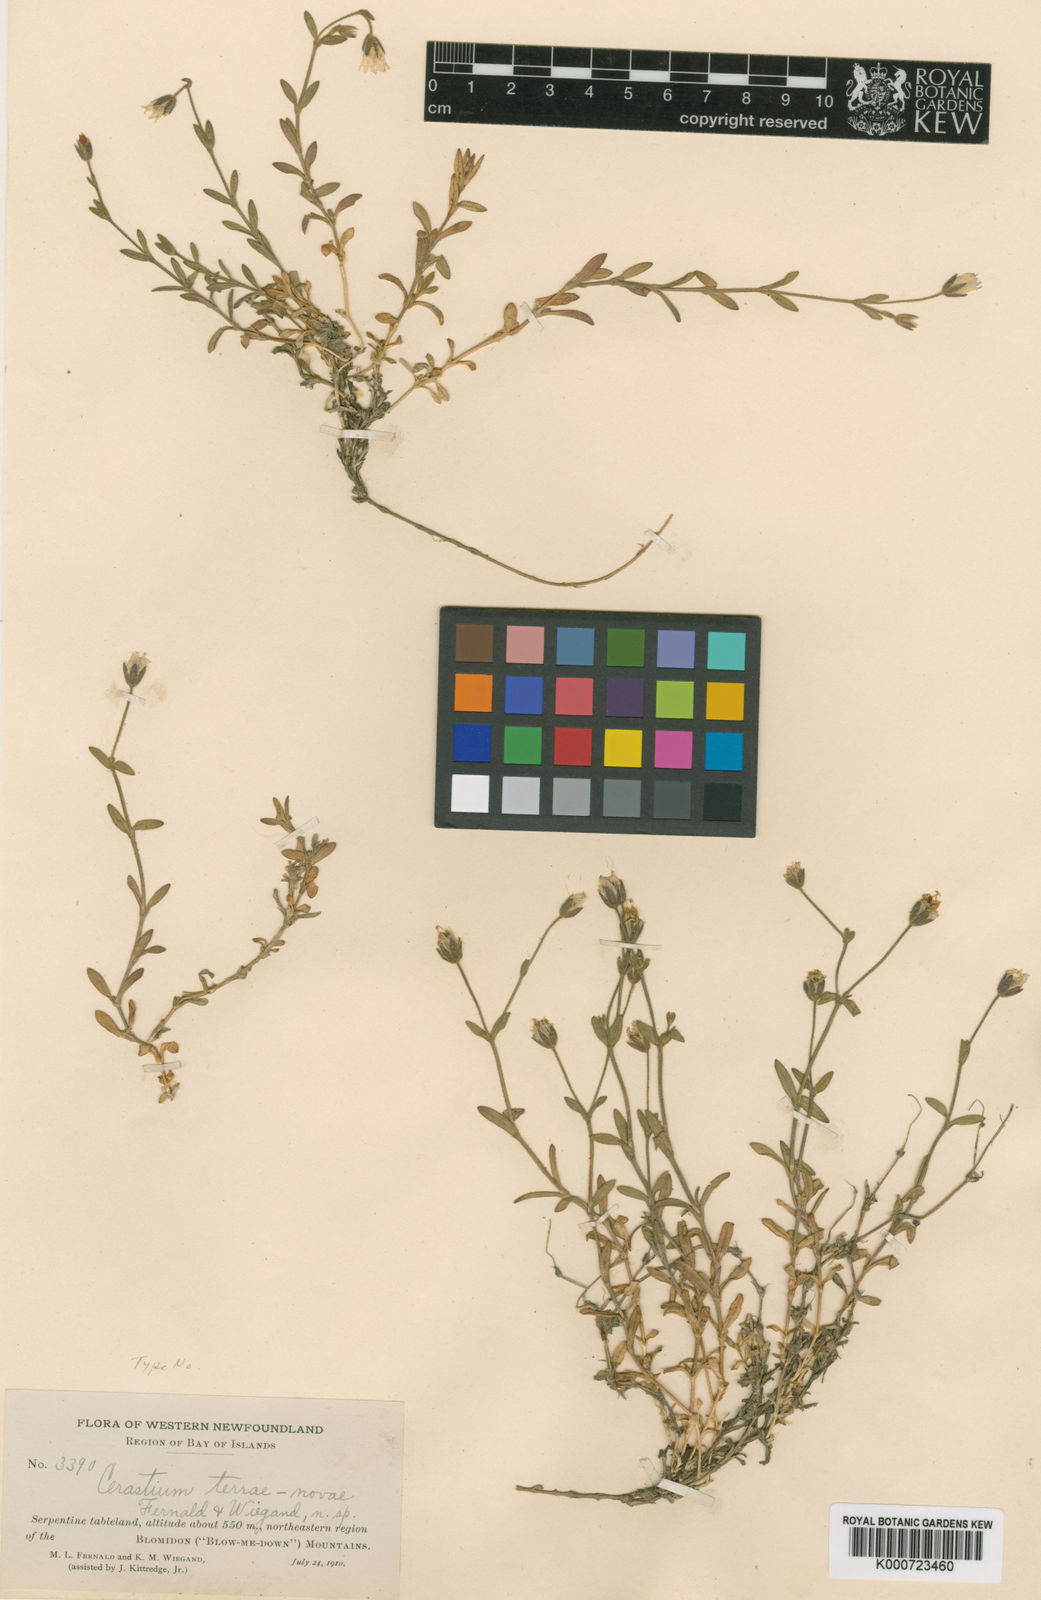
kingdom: Plantae
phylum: Tracheophyta
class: Magnoliopsida
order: Caryophyllales
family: Caryophyllaceae
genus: Cerastium
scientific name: Cerastium terrae-novae
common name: Newfoundland chickweed
